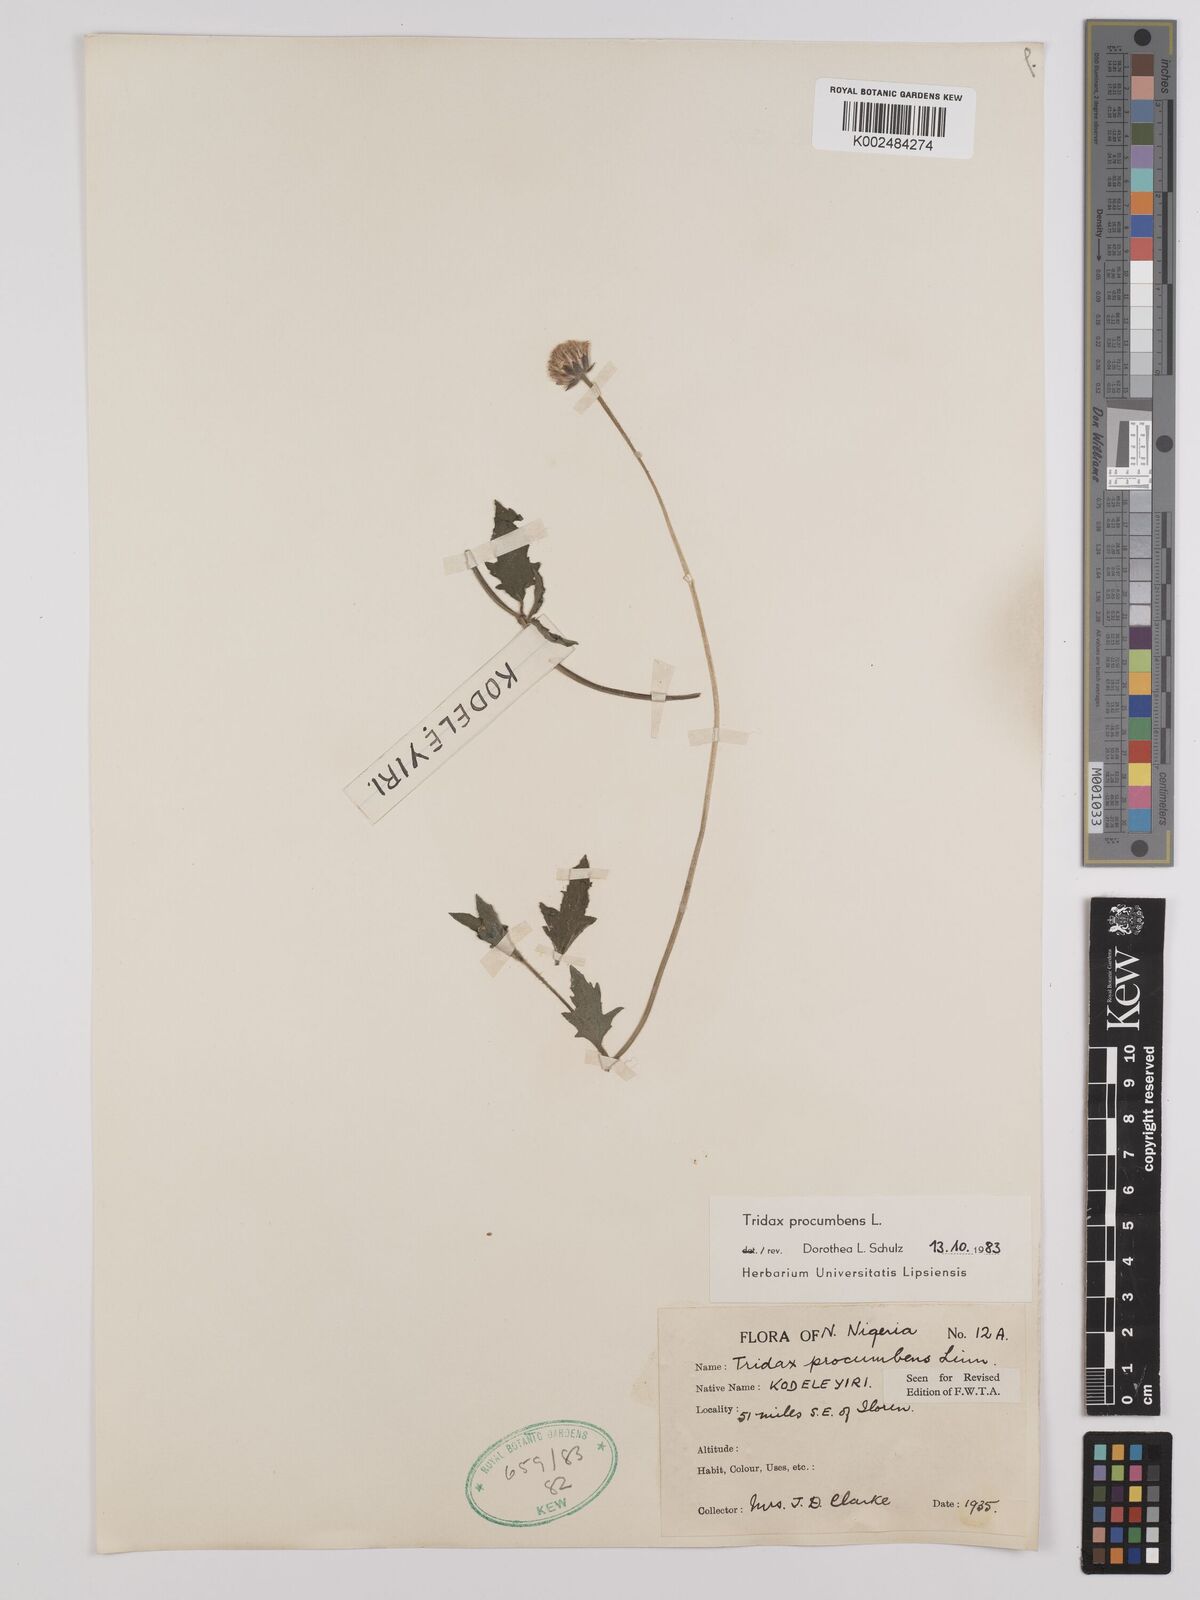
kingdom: Plantae
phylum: Tracheophyta
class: Magnoliopsida
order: Asterales
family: Asteraceae
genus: Tridax
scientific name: Tridax procumbens
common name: Coatbuttons
